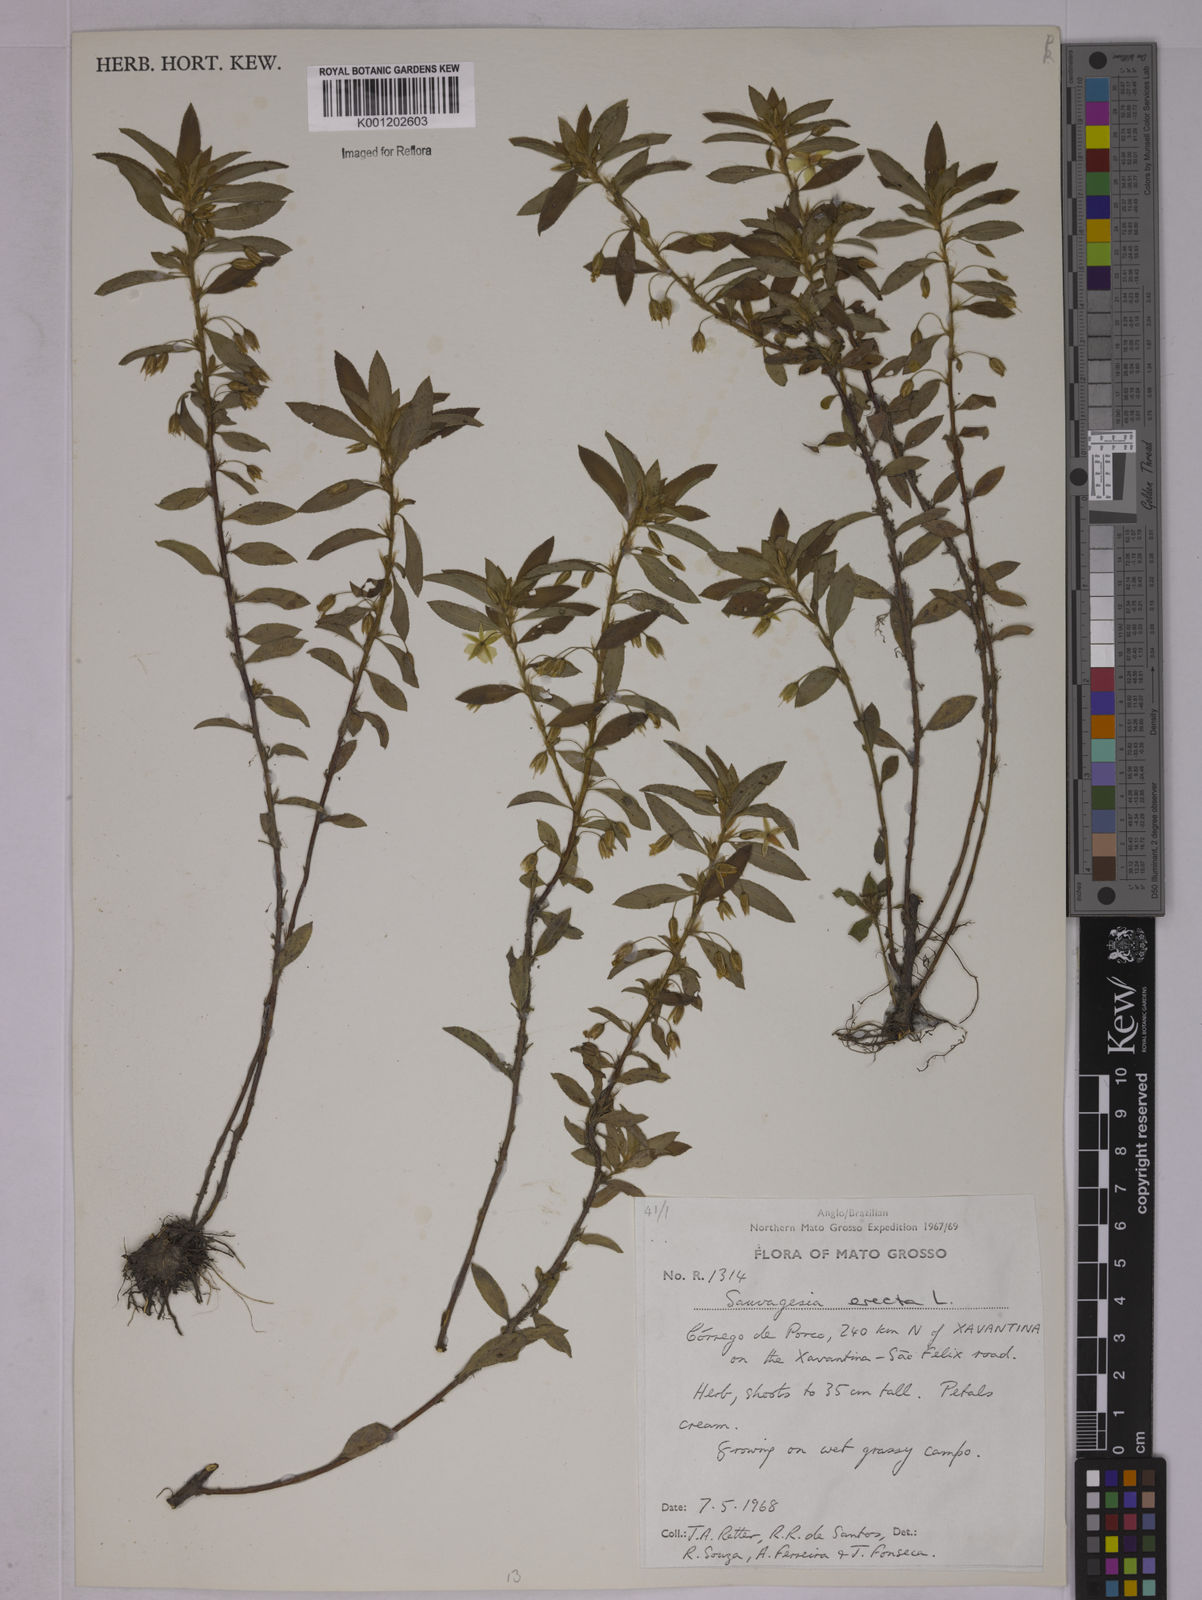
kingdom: Plantae
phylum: Tracheophyta
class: Magnoliopsida
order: Malpighiales
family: Ochnaceae
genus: Sauvagesia
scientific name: Sauvagesia erecta
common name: Creole tea
